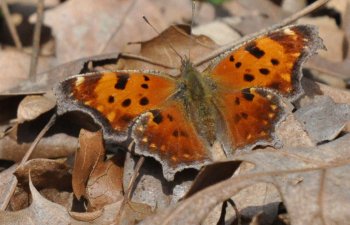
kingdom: Animalia
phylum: Arthropoda
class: Insecta
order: Lepidoptera
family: Nymphalidae
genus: Polygonia
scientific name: Polygonia comma
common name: Eastern Comma
